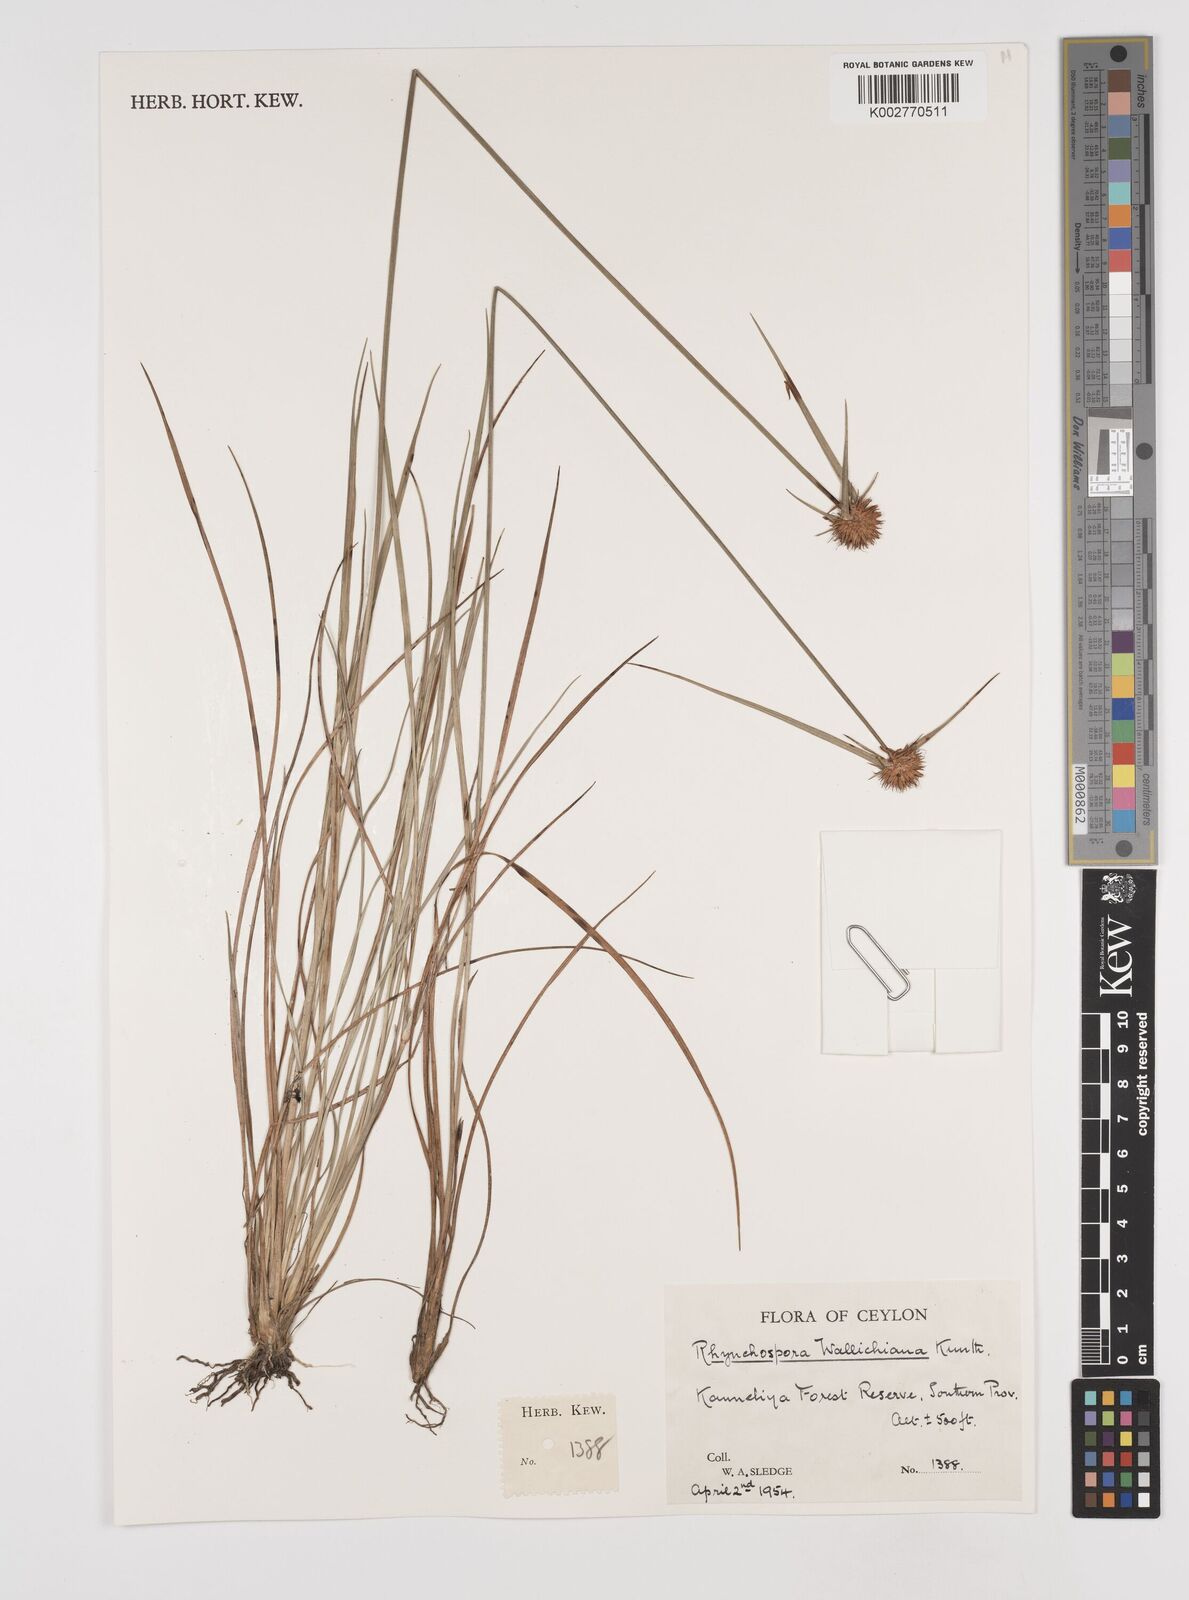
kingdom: Plantae
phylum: Tracheophyta
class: Liliopsida
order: Poales
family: Cyperaceae
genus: Rhynchospora
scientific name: Rhynchospora rubra
